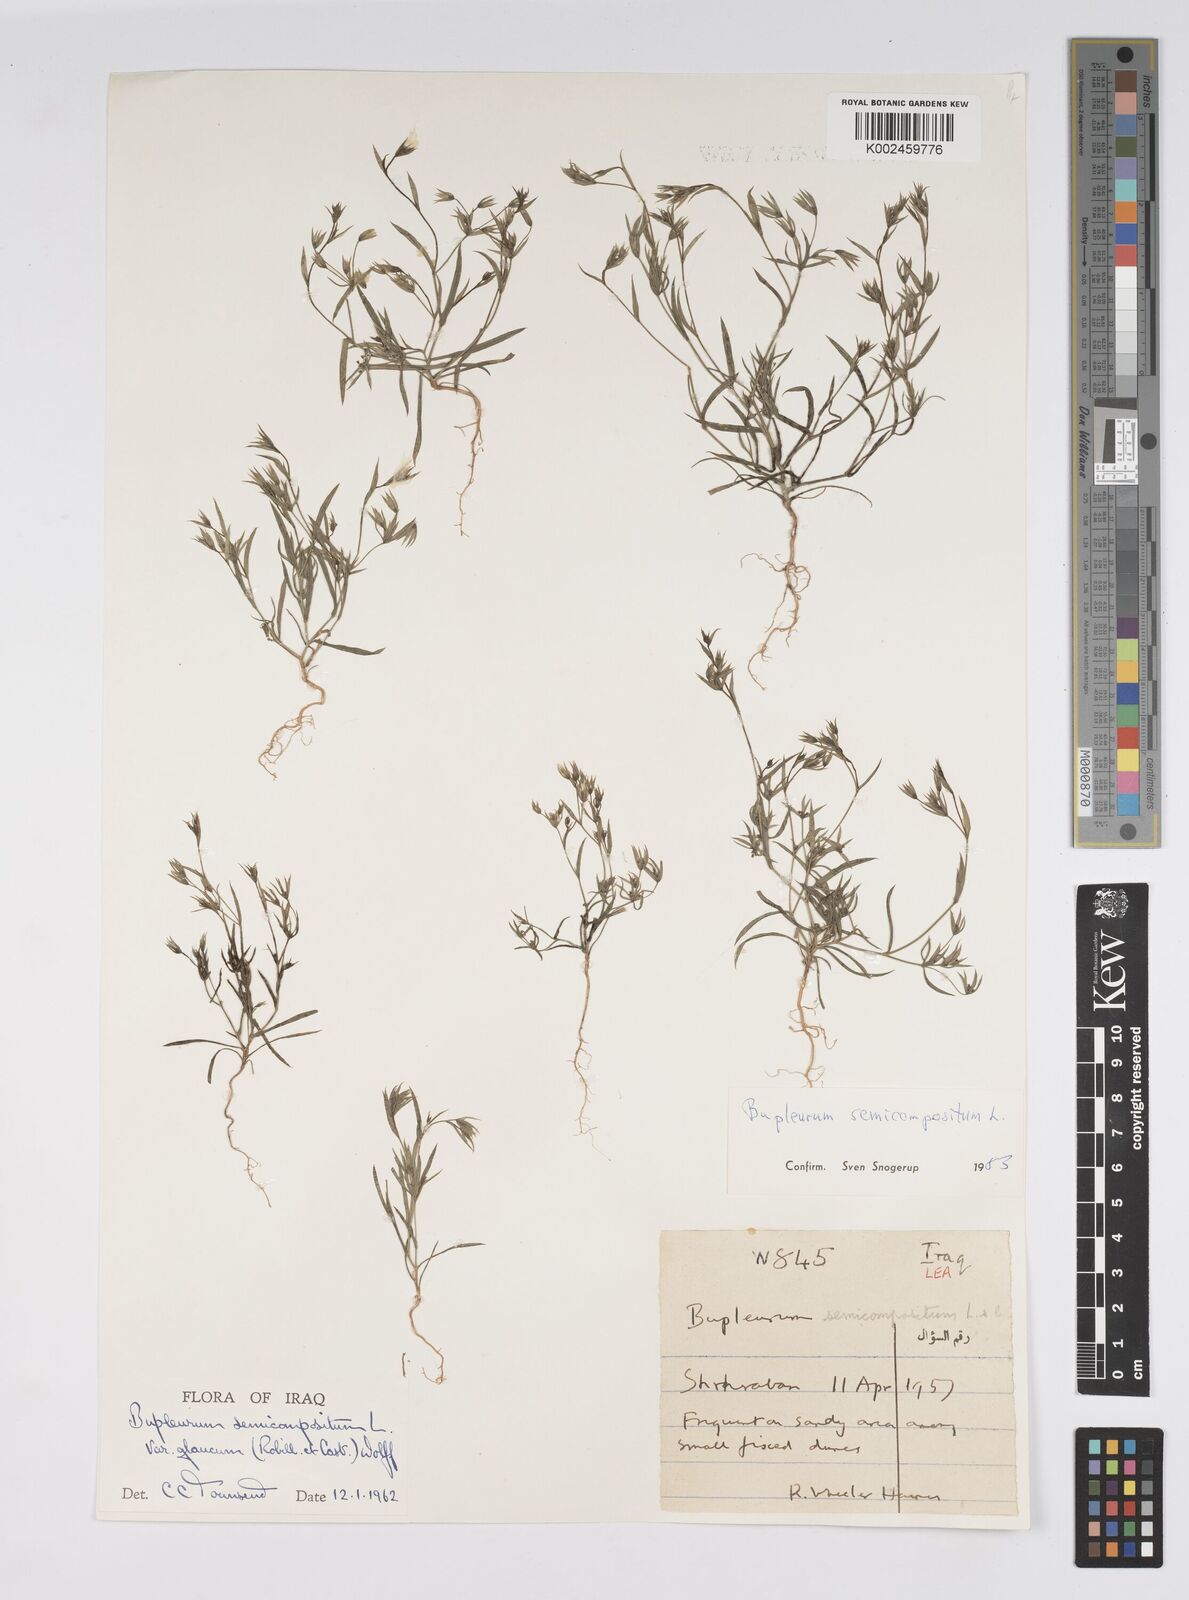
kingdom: Plantae
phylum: Tracheophyta
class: Magnoliopsida
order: Apiales
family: Apiaceae
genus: Bupleurum
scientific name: Bupleurum semicompositum
